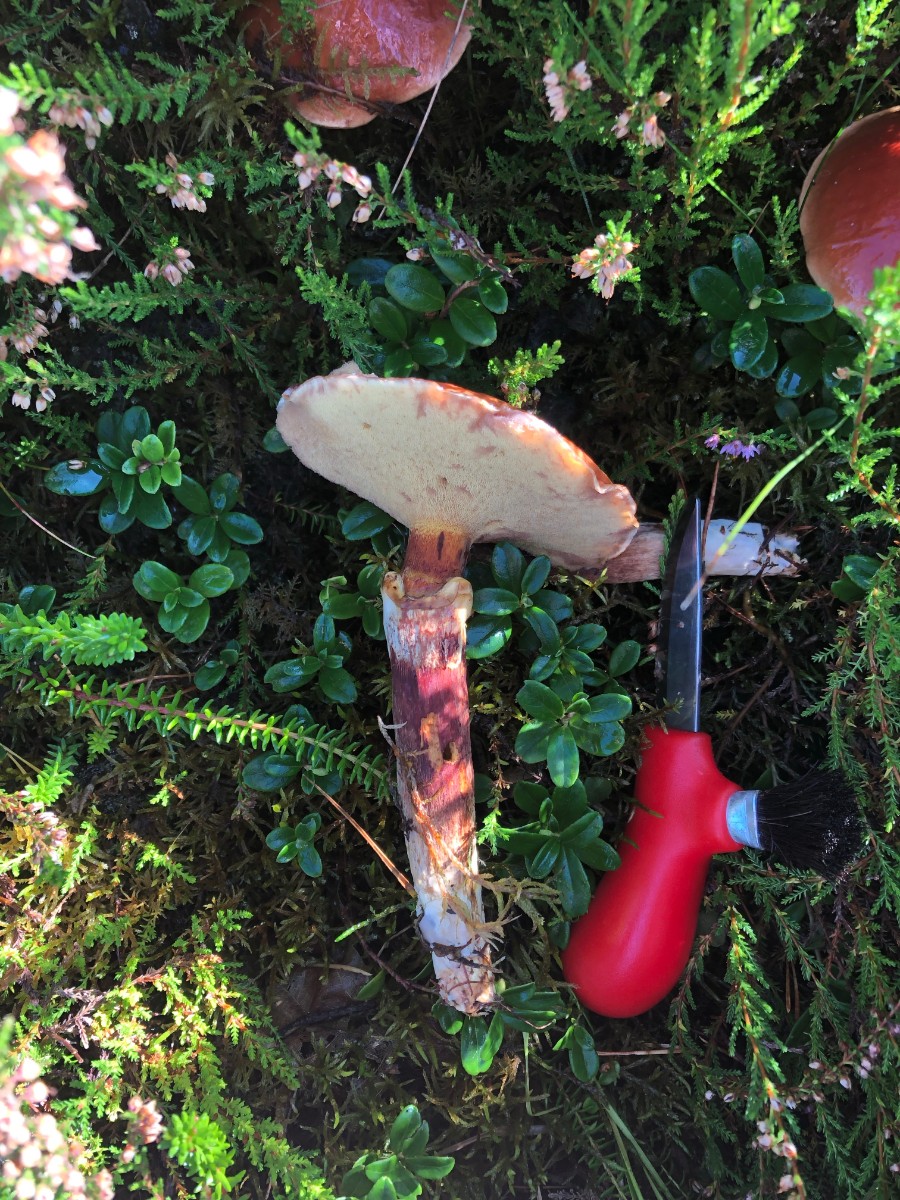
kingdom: Fungi
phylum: Basidiomycota
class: Agaricomycetes
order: Boletales
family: Suillaceae
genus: Suillus
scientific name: Suillus grevillei
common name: Larch bolete
